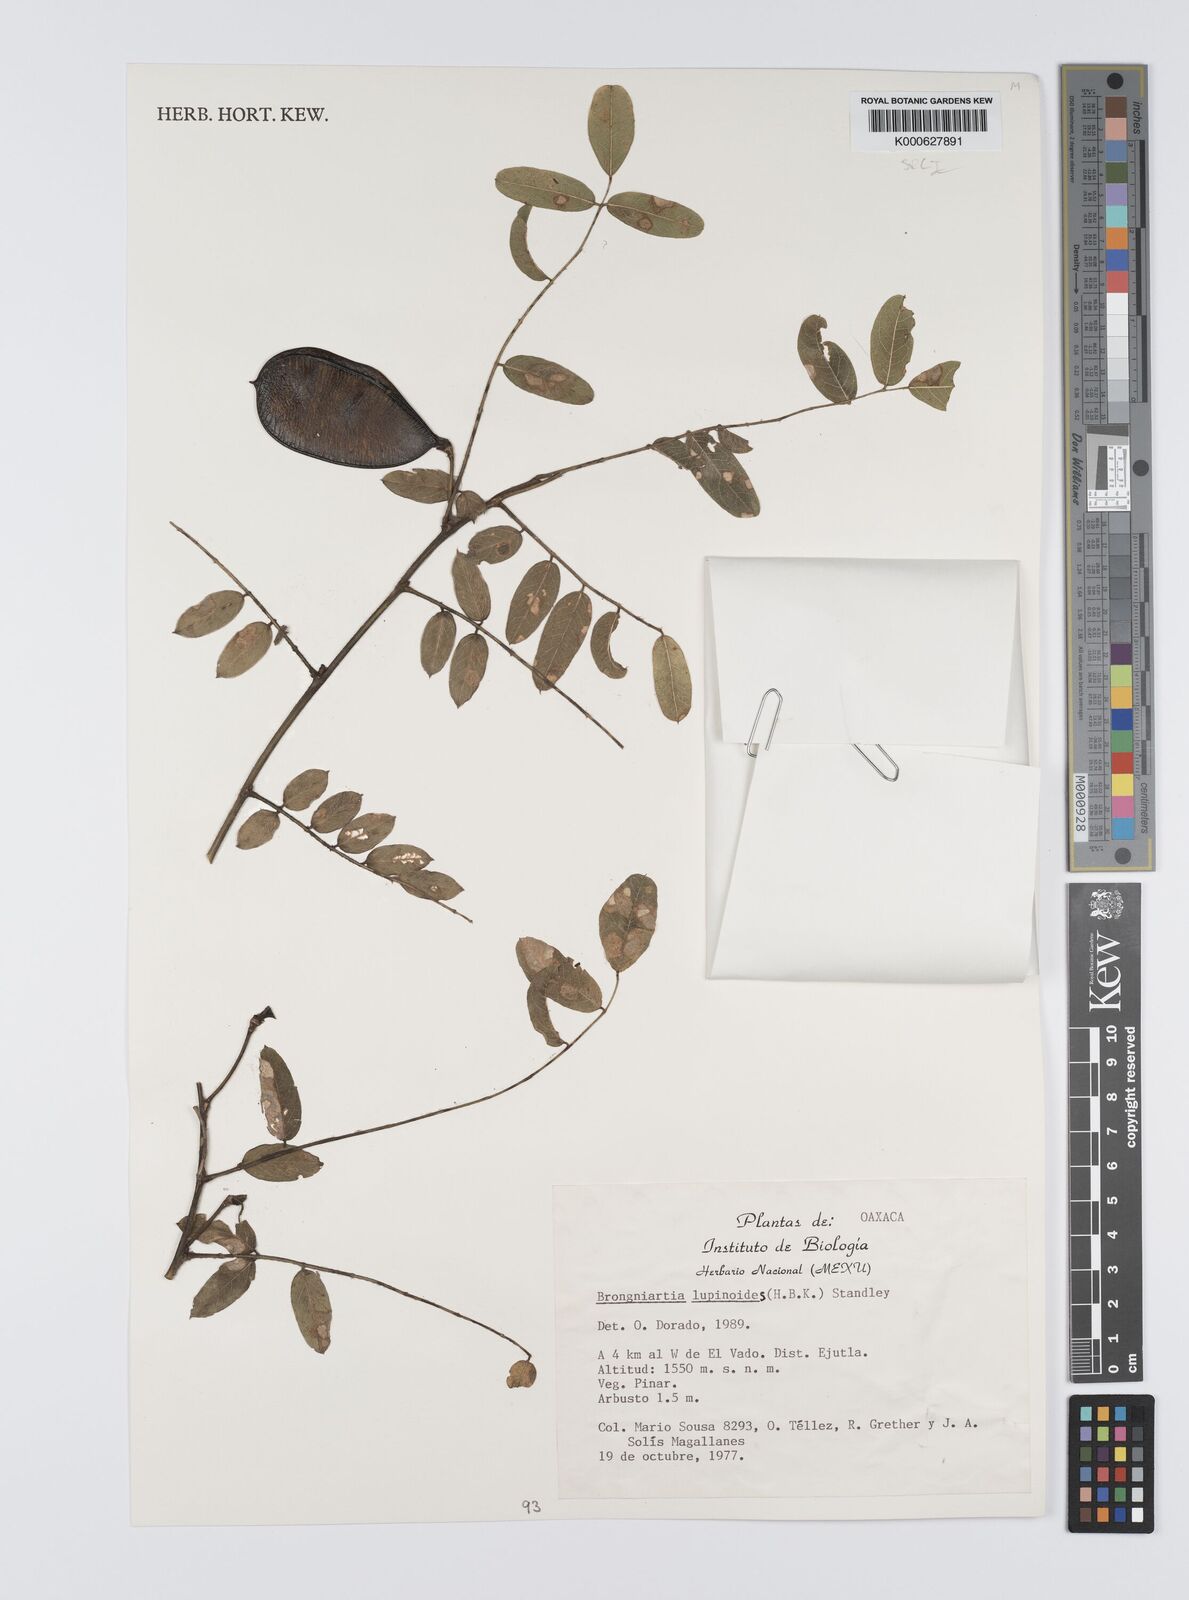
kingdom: Plantae
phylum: Tracheophyta
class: Magnoliopsida
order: Fabales
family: Fabaceae
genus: Brongniartia
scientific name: Brongniartia lupinoides
